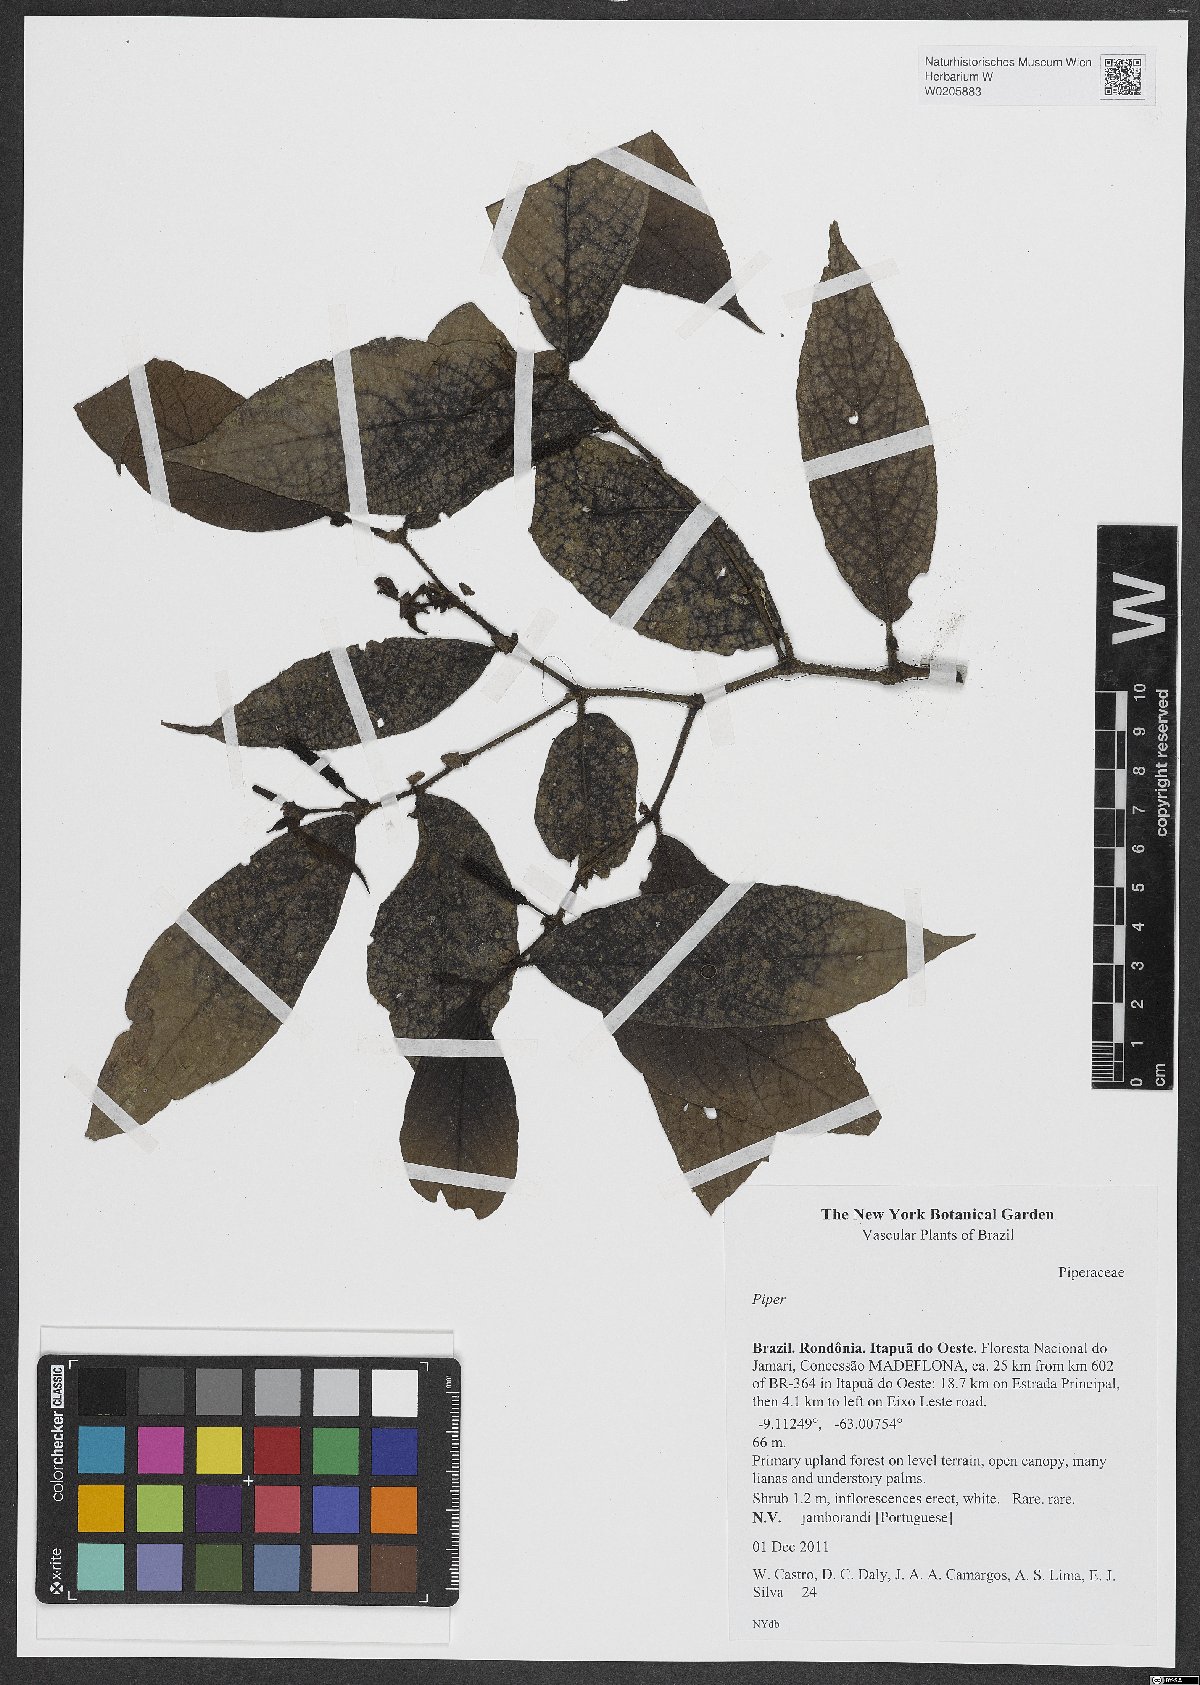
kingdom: Plantae
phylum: Tracheophyta
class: Magnoliopsida
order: Piperales
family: Piperaceae
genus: Piper
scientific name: Piper
